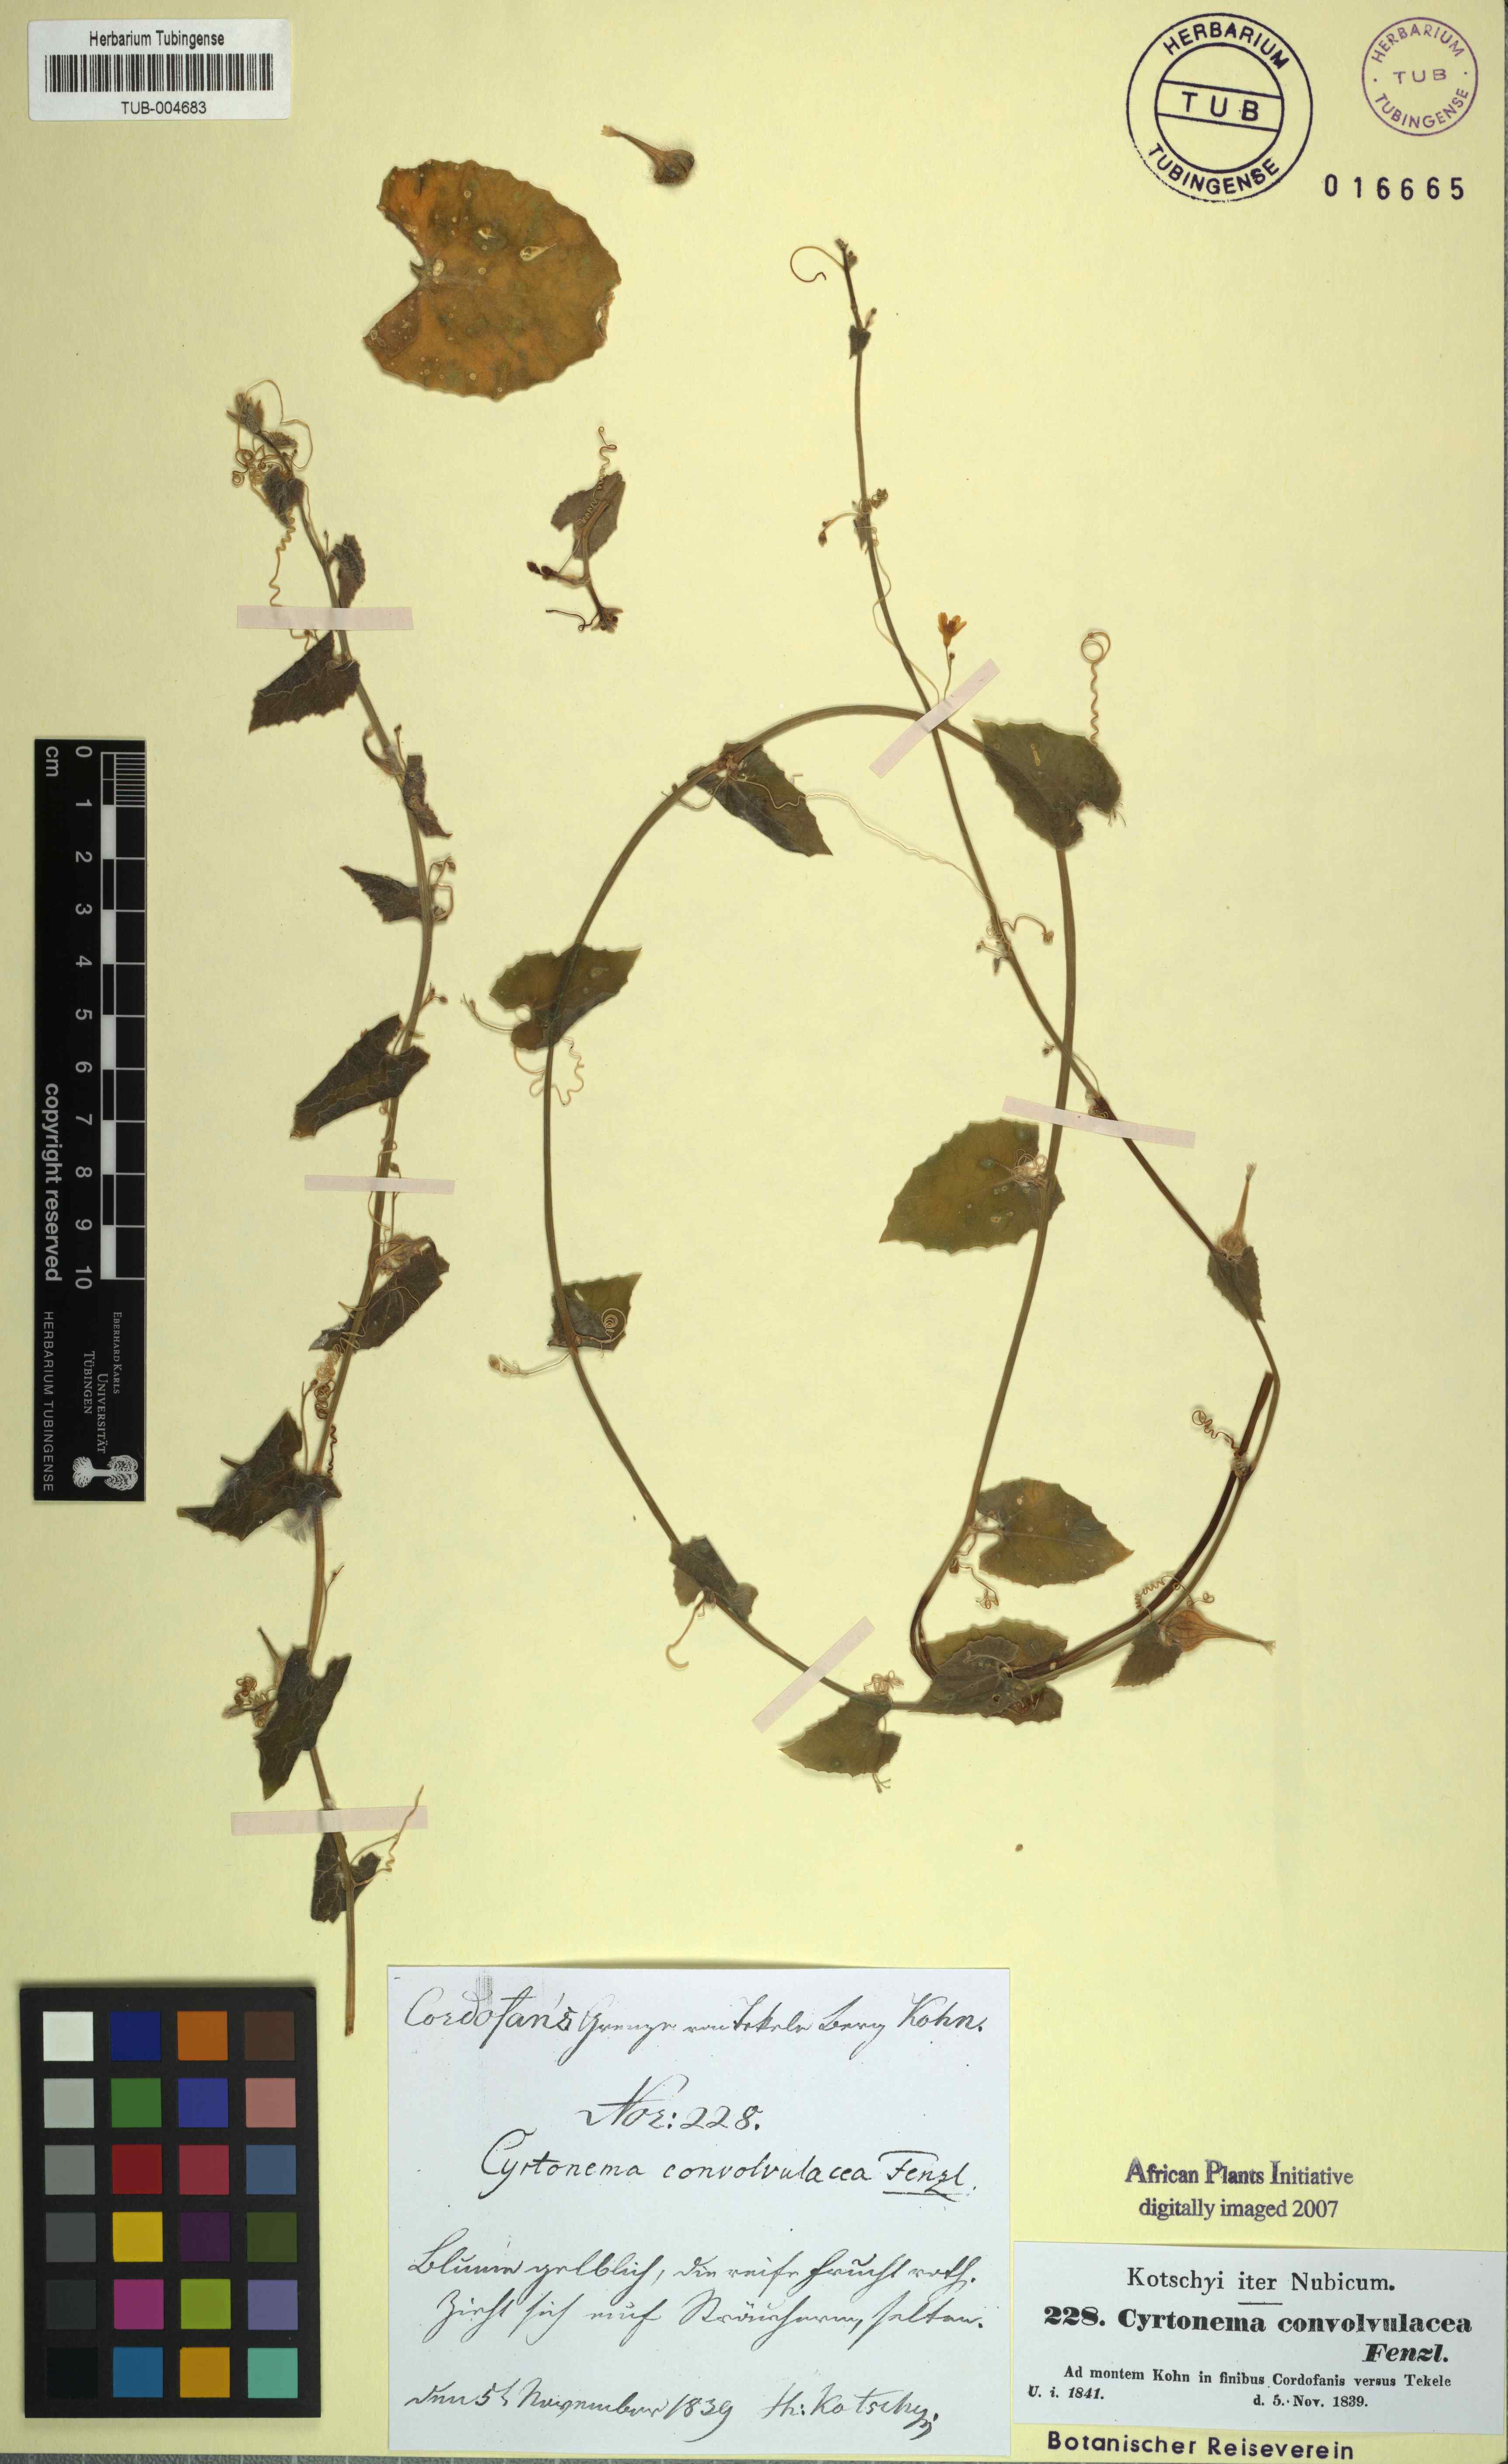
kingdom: Plantae
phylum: Tracheophyta
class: Magnoliopsida
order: Cucurbitales
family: Cucurbitaceae
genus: Kedrostis
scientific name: Kedrostis foetidissima
